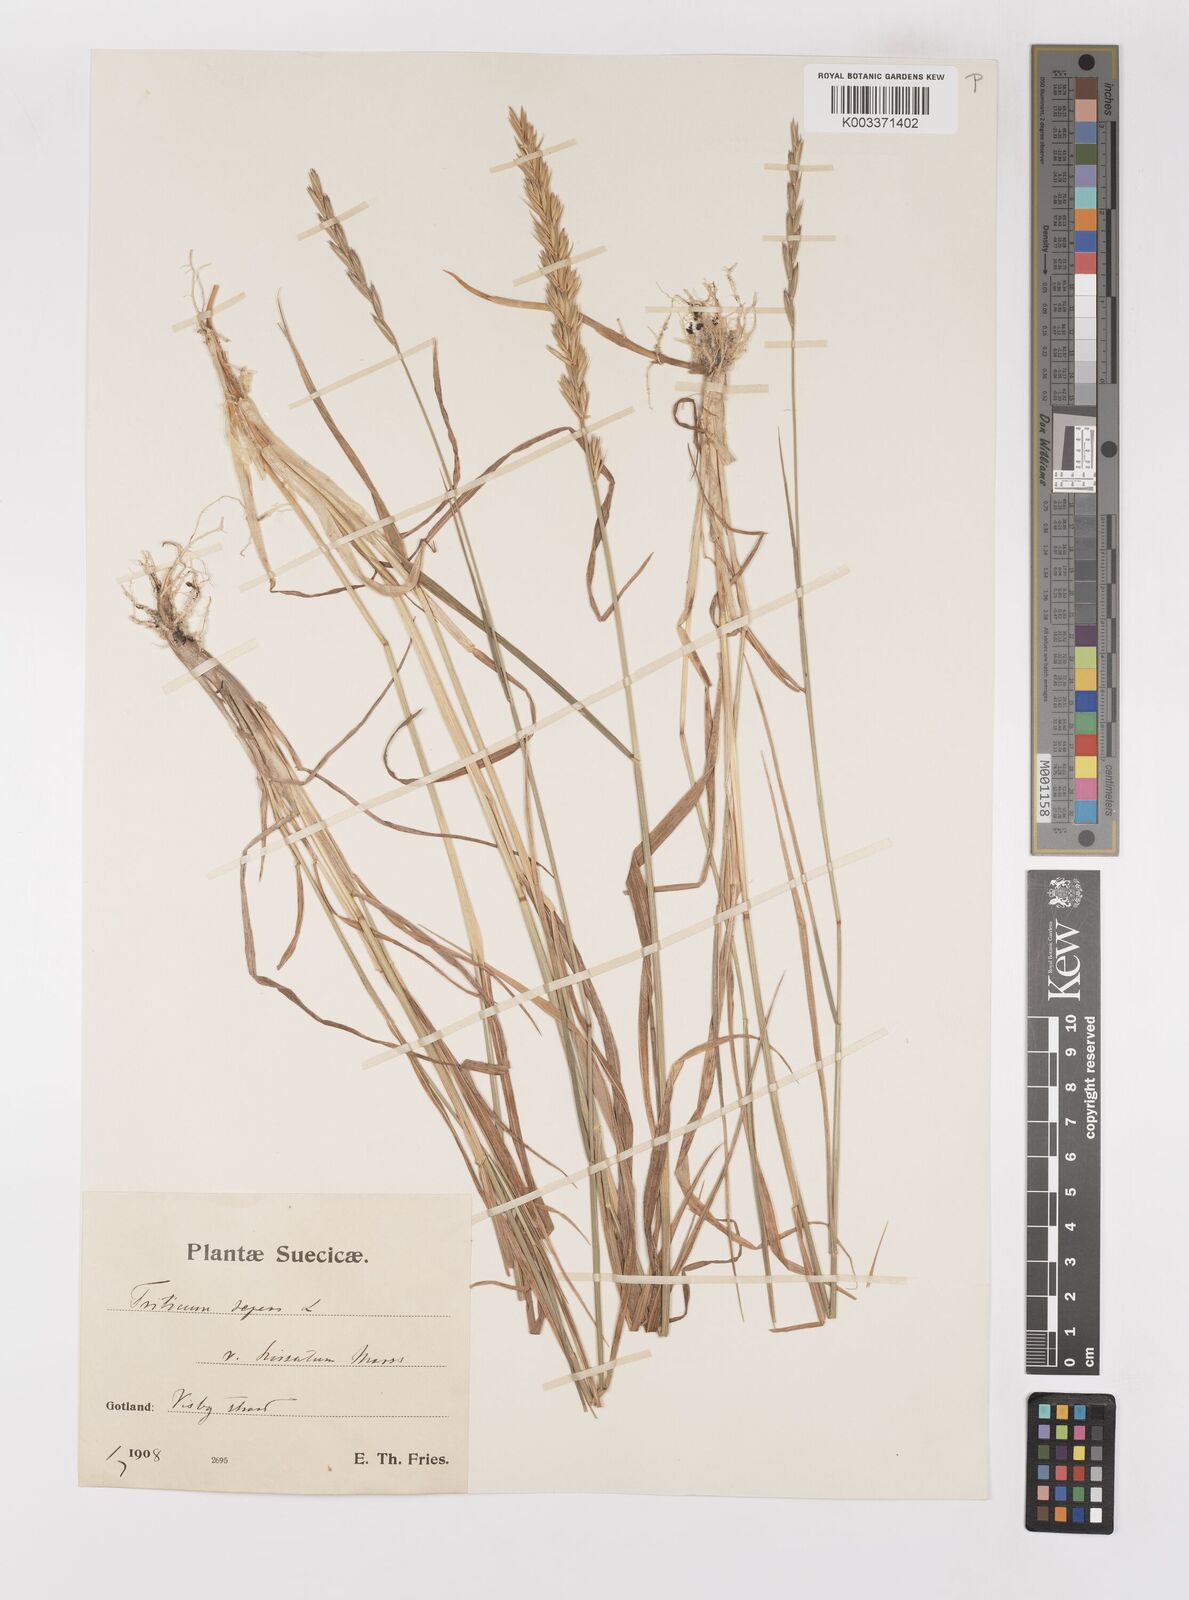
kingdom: Plantae
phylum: Tracheophyta
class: Liliopsida
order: Poales
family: Poaceae
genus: Elymus
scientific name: Elymus repens
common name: Quackgrass
